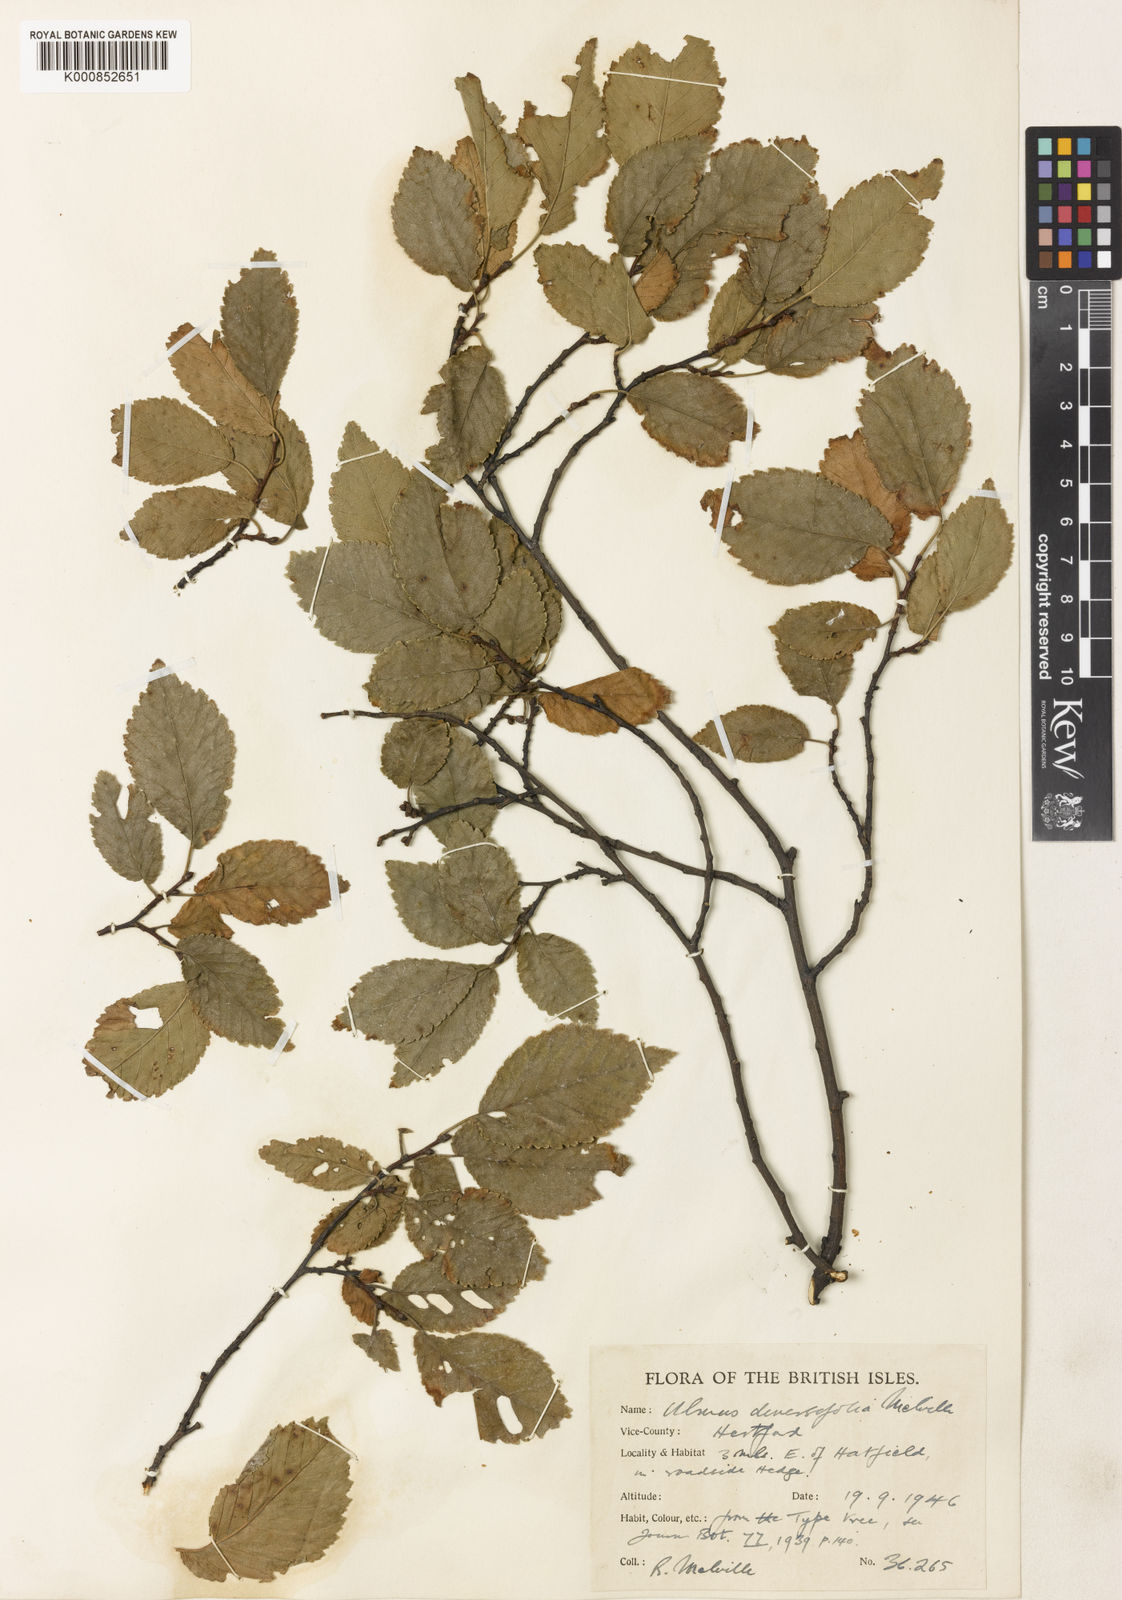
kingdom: Plantae
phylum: Tracheophyta
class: Magnoliopsida
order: Rosales
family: Ulmaceae
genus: Ulmus
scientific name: Ulmus minor
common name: Small-leaved elm
